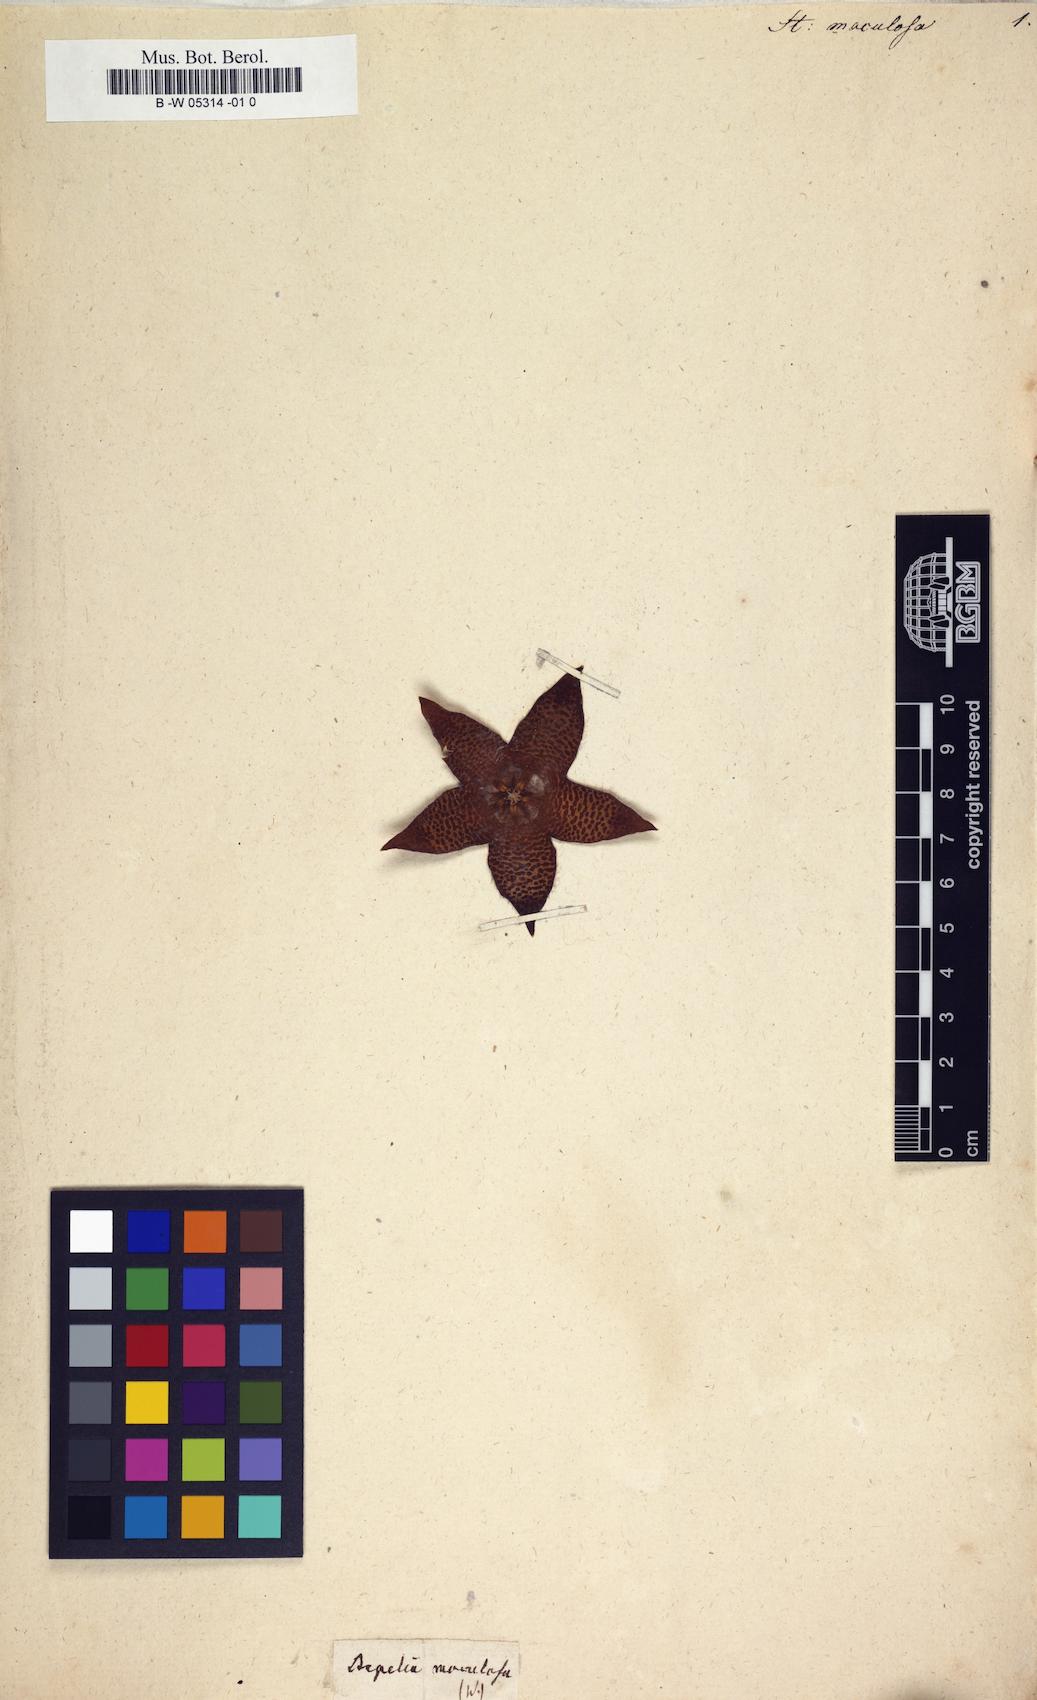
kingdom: Plantae
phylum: Tracheophyta
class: Magnoliopsida
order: Gentianales
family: Apocynaceae
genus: Stapelia
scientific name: Stapelia maculosa
